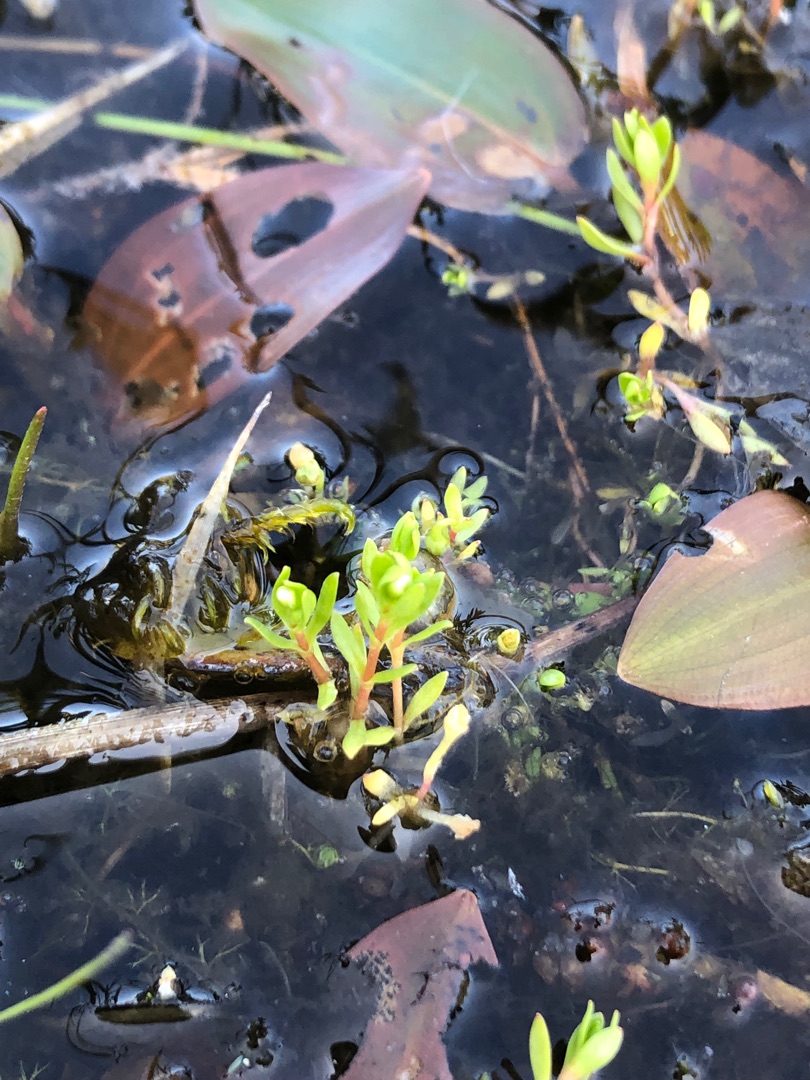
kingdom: Plantae
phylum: Tracheophyta
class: Magnoliopsida
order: Caryophyllales
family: Montiaceae
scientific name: Montiaceae
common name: Vandarvefamilien
